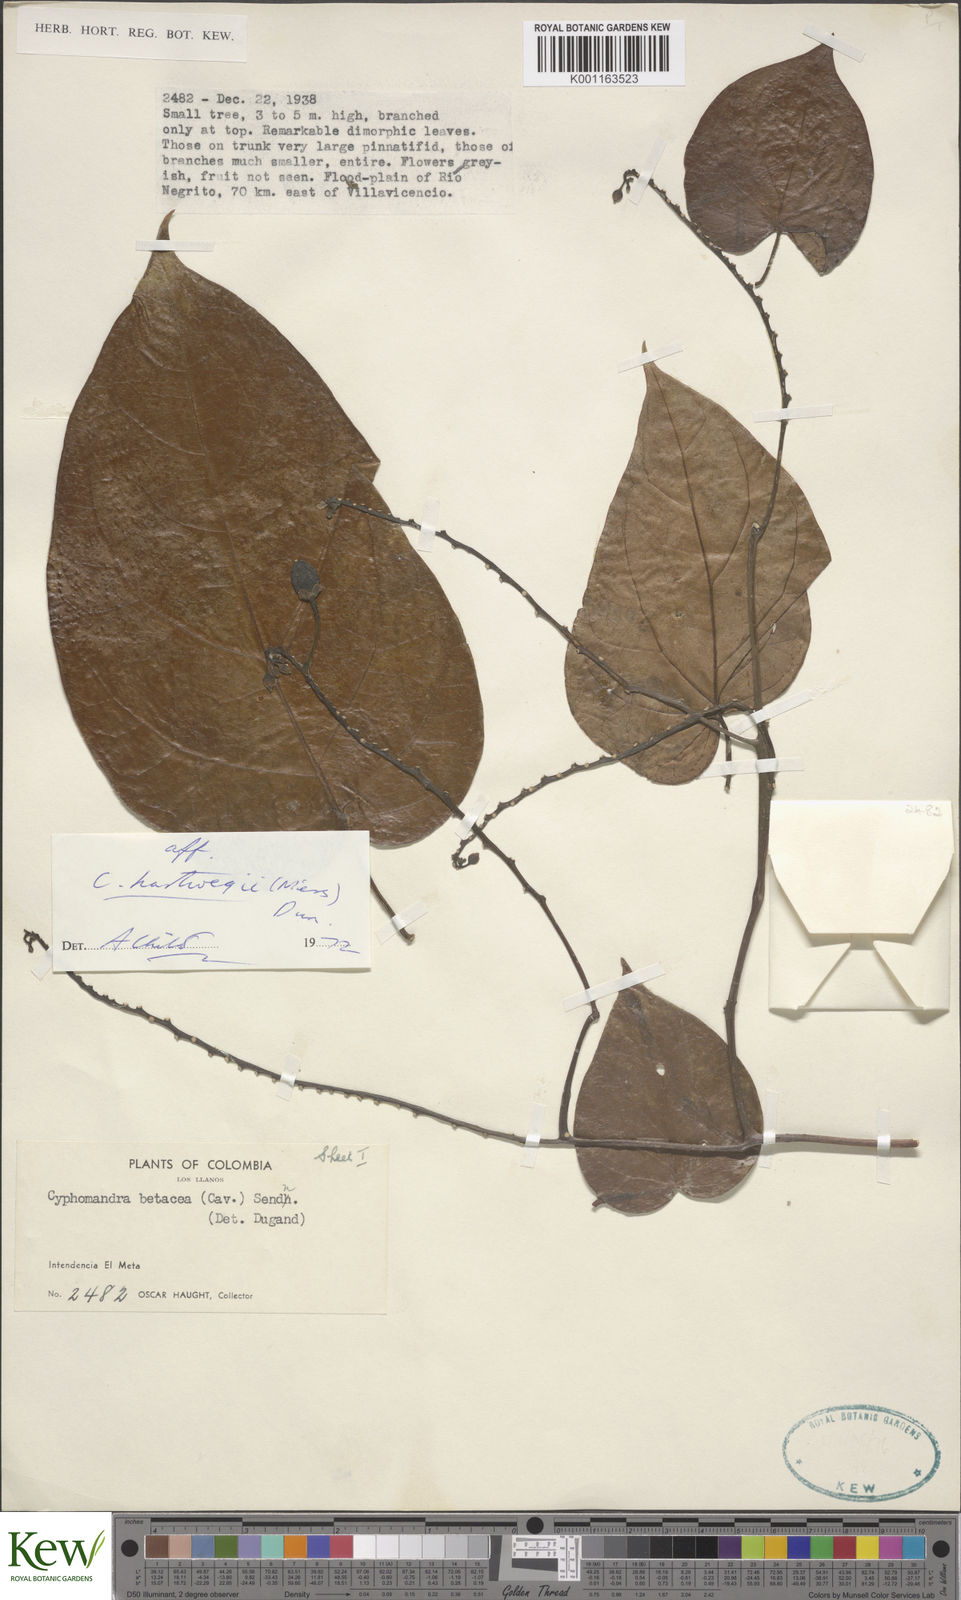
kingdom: Plantae
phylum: Tracheophyta
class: Magnoliopsida
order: Solanales
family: Solanaceae
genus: Solanum
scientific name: Solanum splendens
